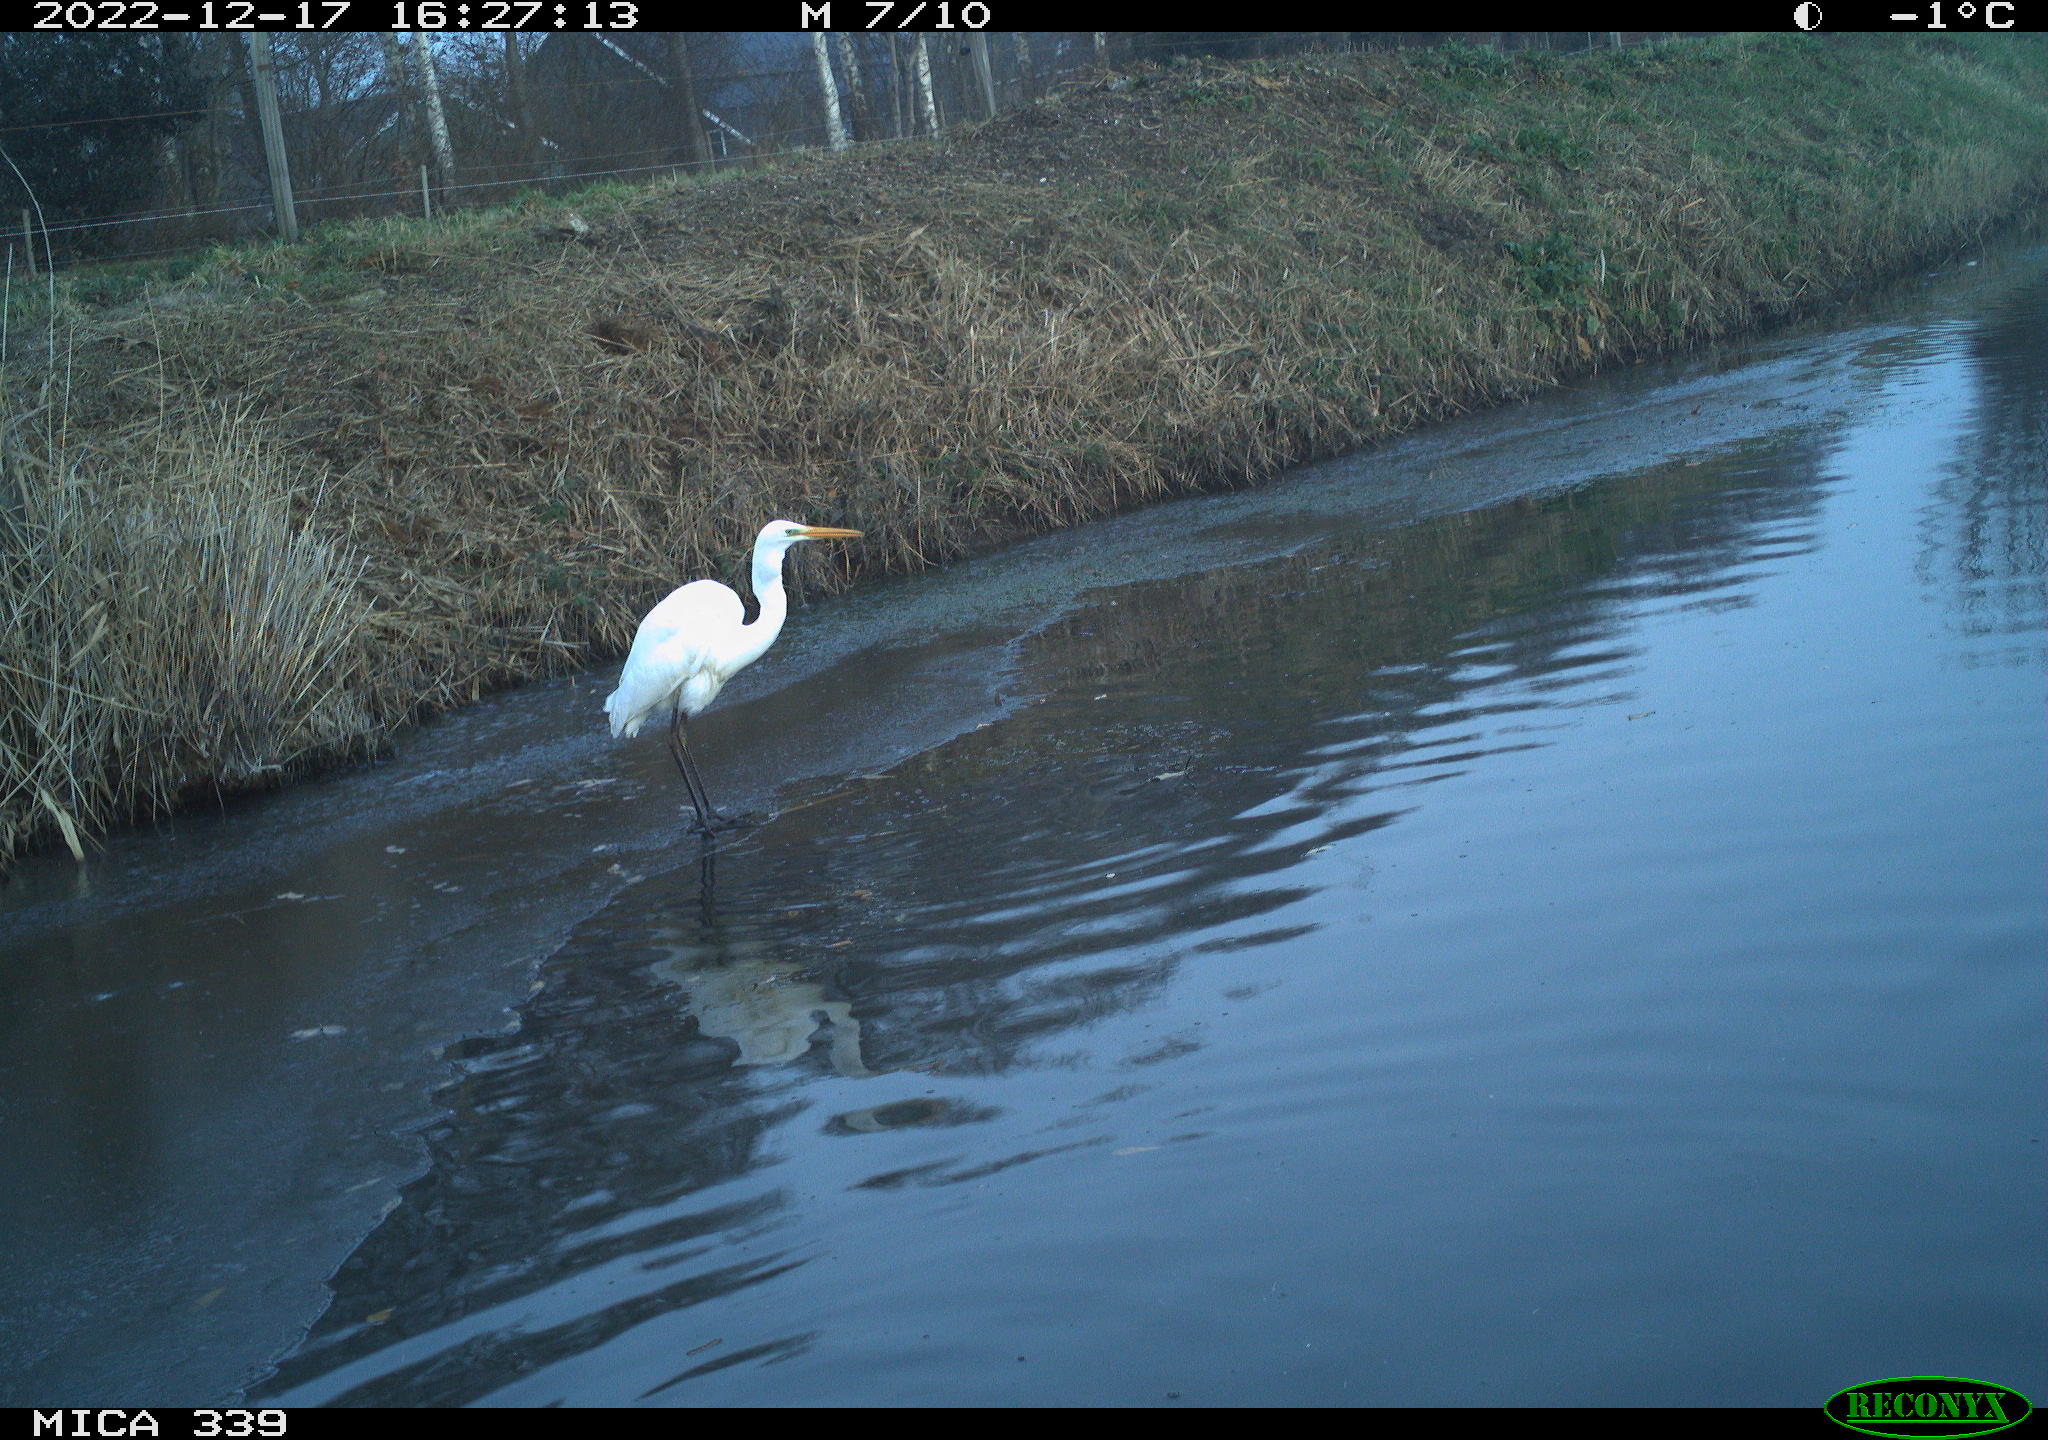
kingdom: Animalia
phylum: Chordata
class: Aves
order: Anseriformes
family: Anatidae
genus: Mareca
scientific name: Mareca strepera
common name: Gadwall
